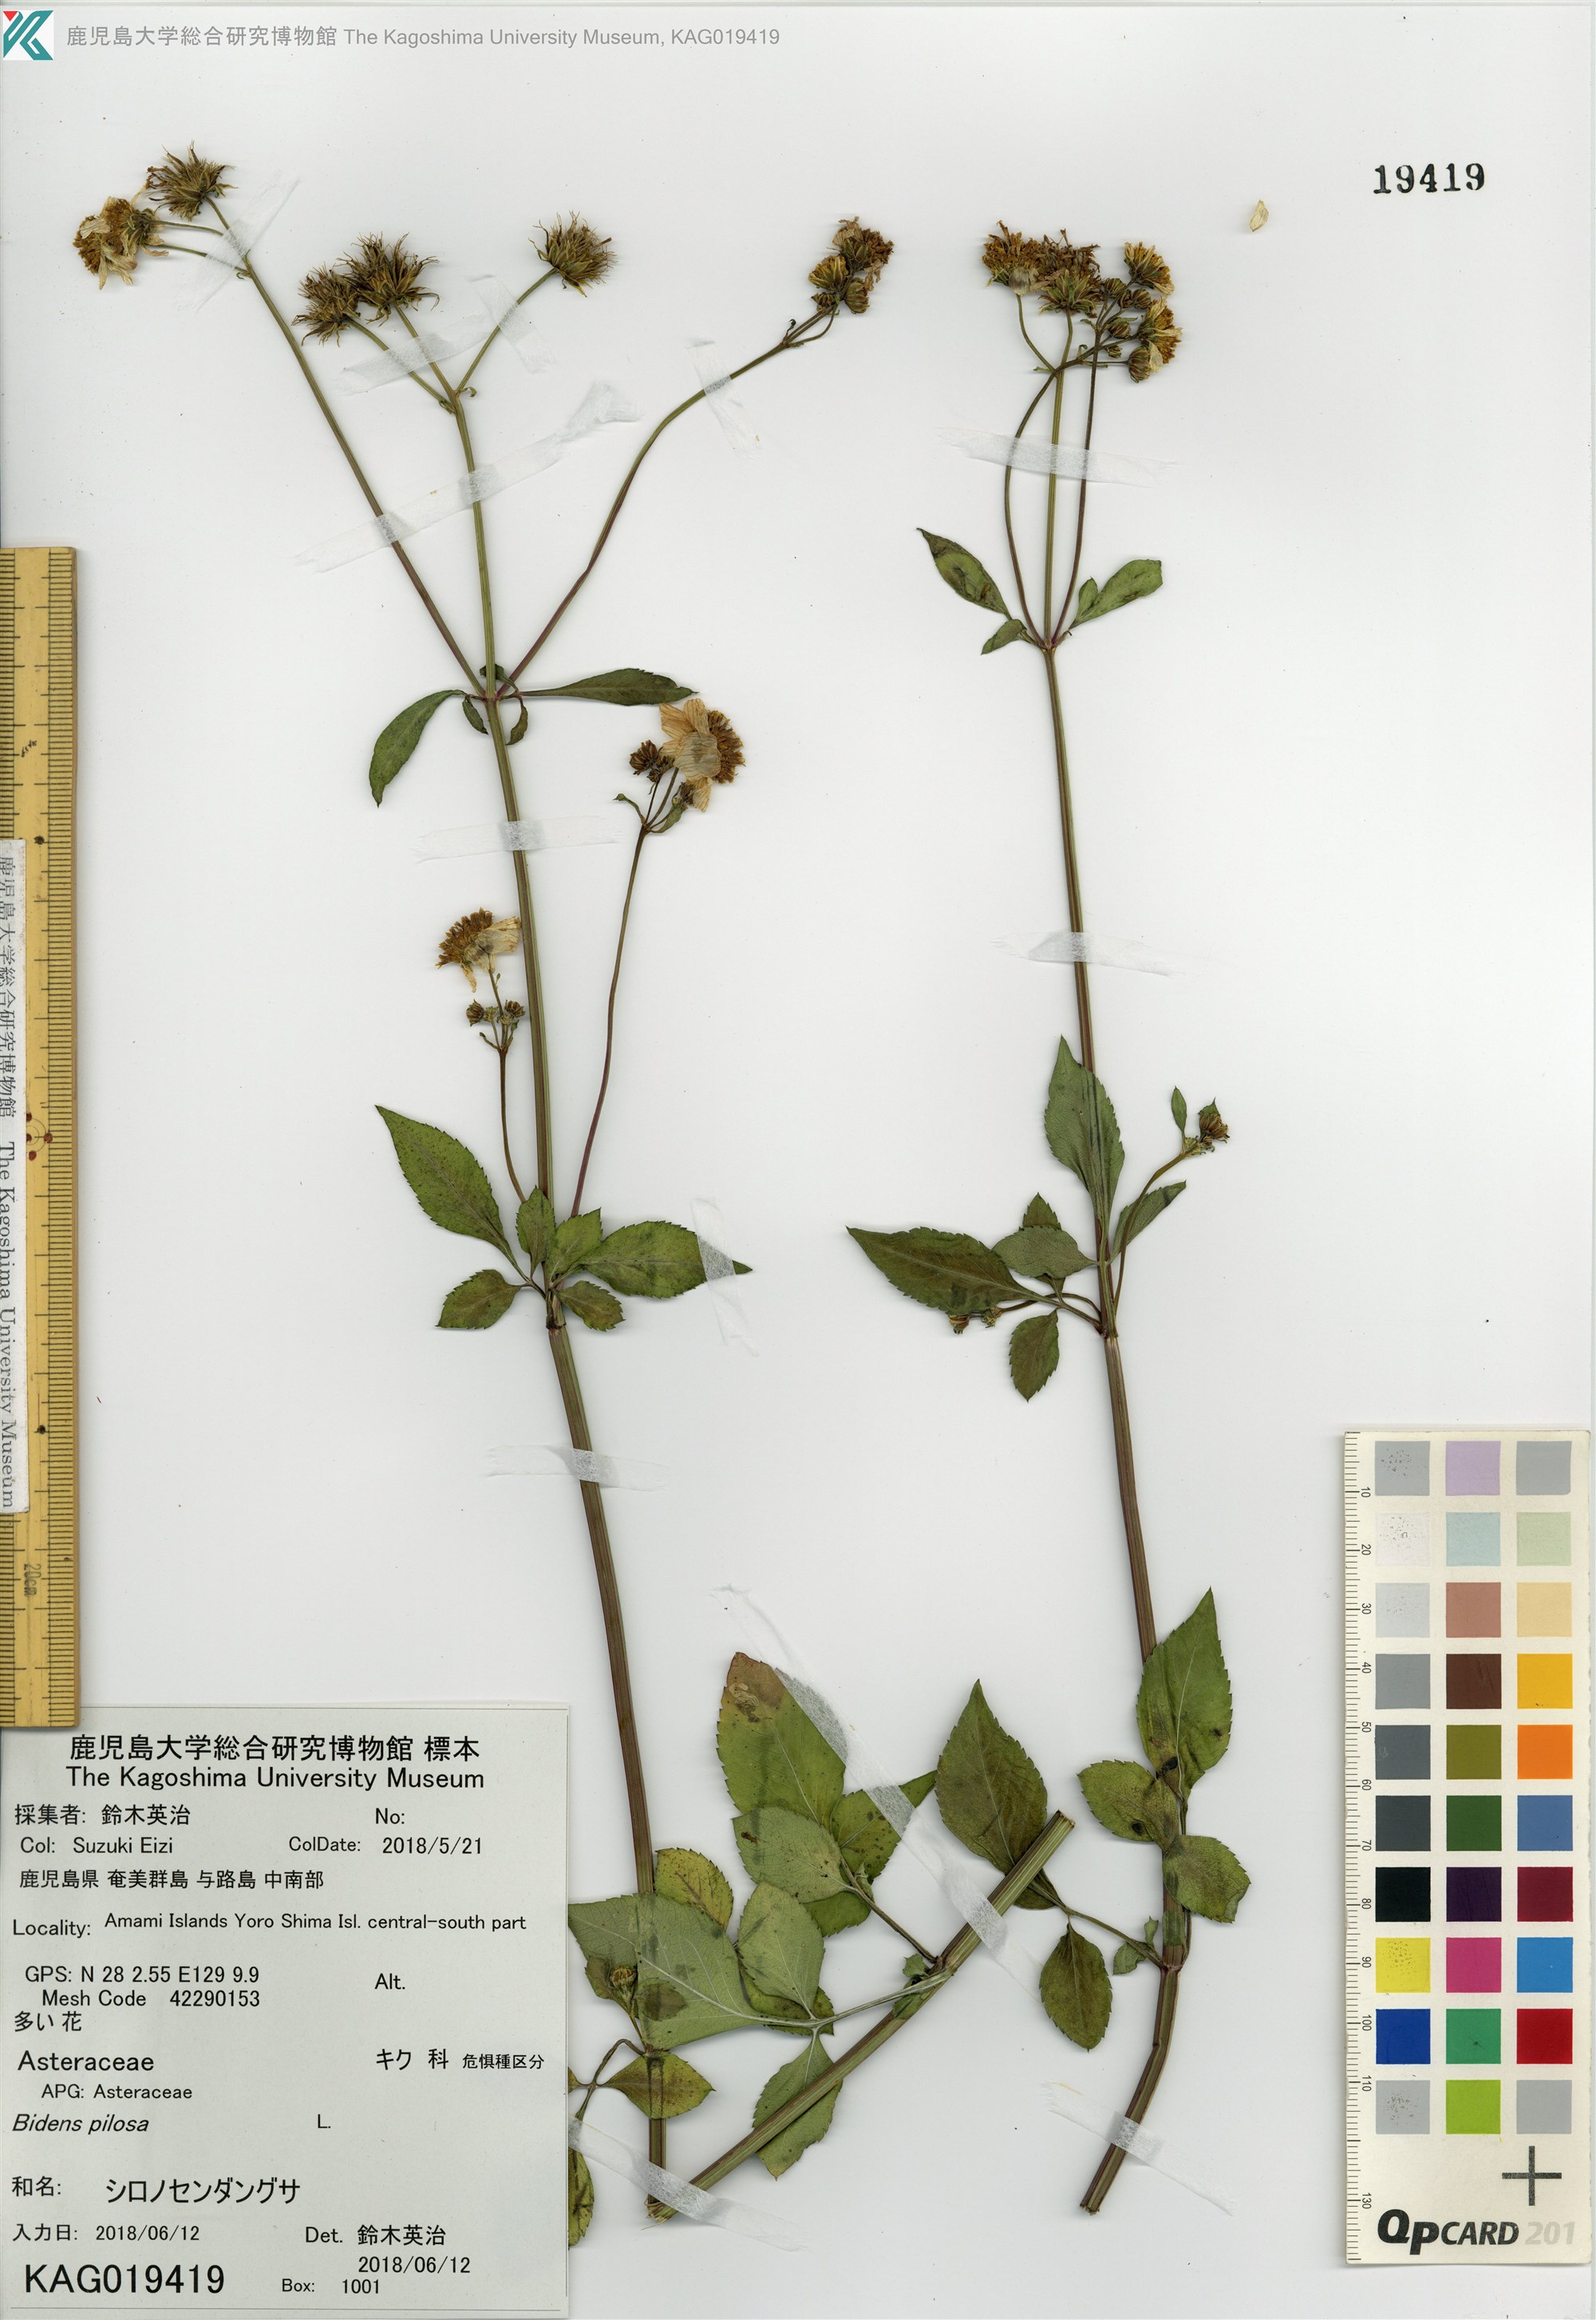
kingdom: Plantae
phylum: Tracheophyta
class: Magnoliopsida
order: Asterales
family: Asteraceae
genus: Bidens
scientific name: Bidens pilosa
